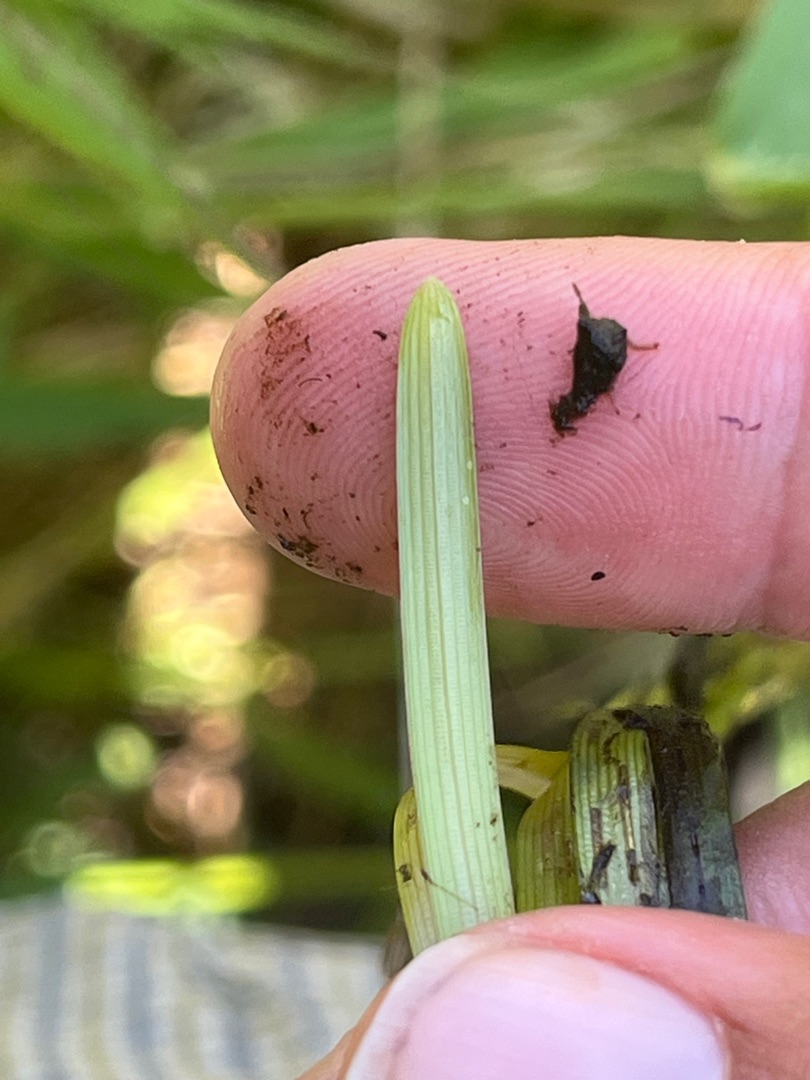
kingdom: Plantae
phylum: Tracheophyta
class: Liliopsida
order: Poales
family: Typhaceae
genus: Sparganium
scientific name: Sparganium
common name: Pindsvineknopslægten
